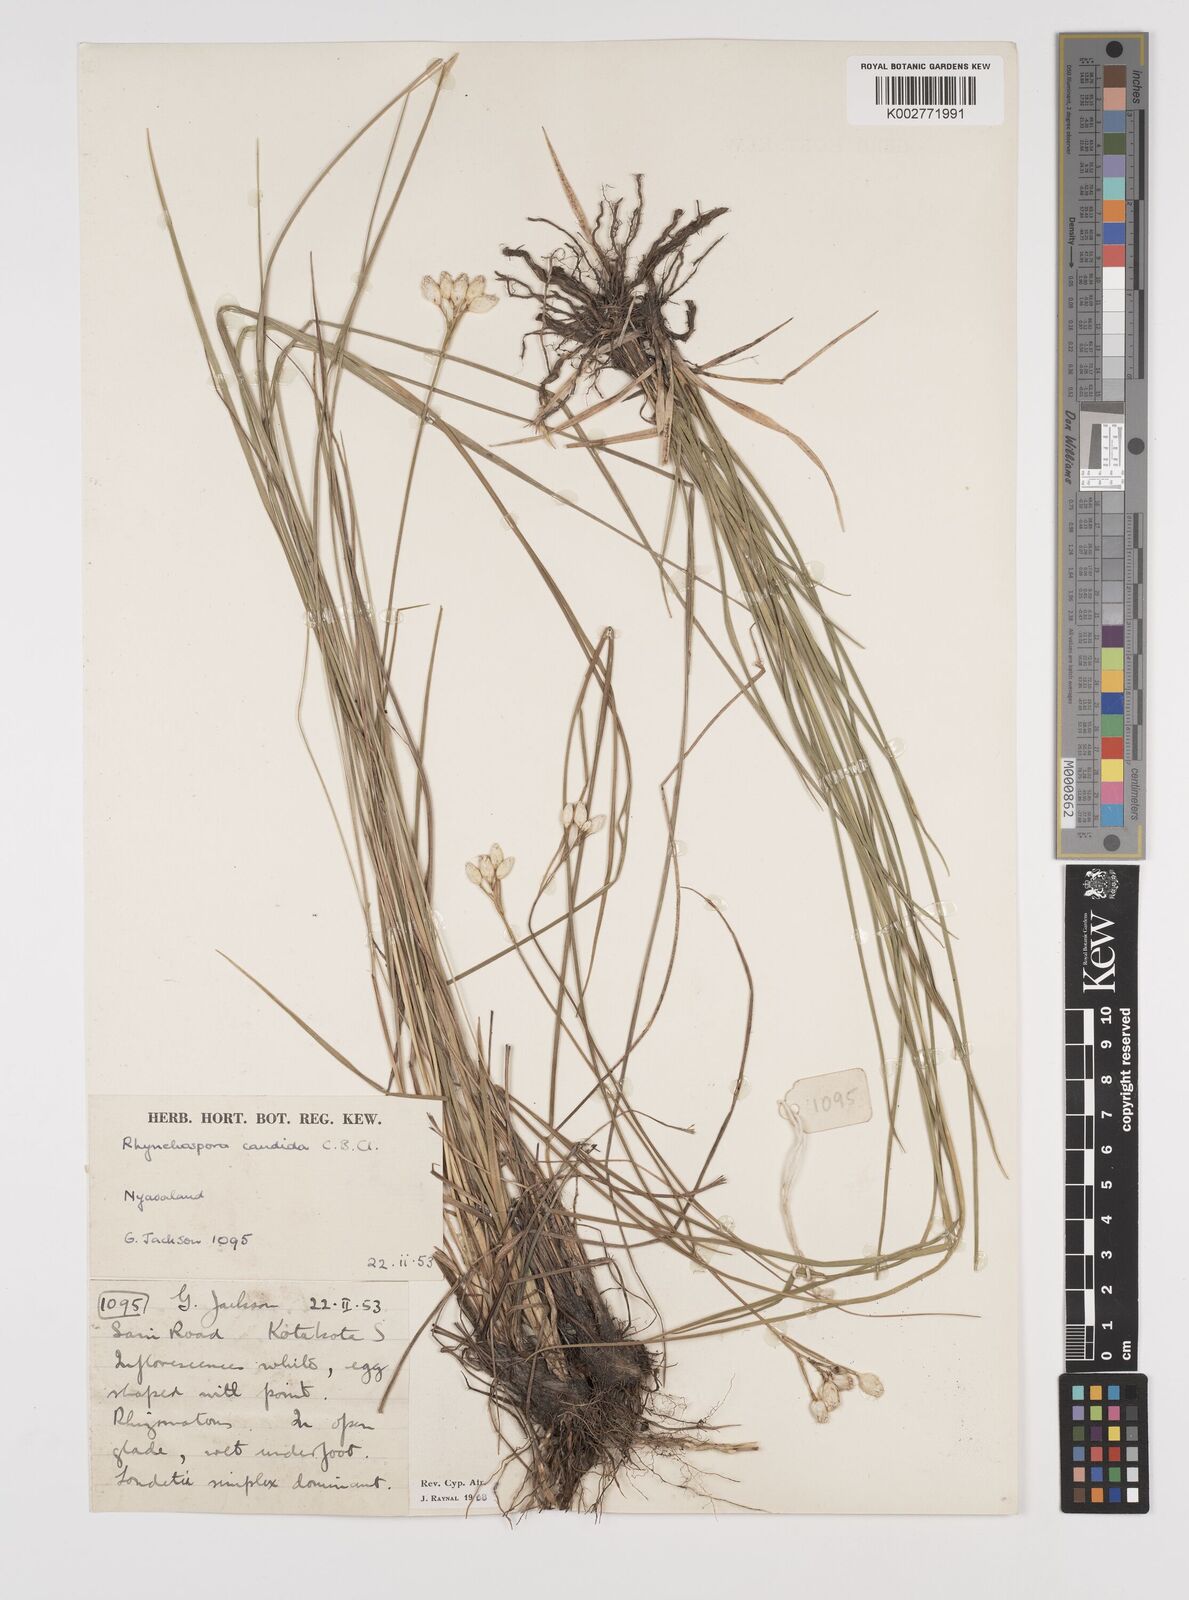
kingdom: Plantae
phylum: Tracheophyta
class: Liliopsida
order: Poales
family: Cyperaceae
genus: Rhynchospora
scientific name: Rhynchospora candida
